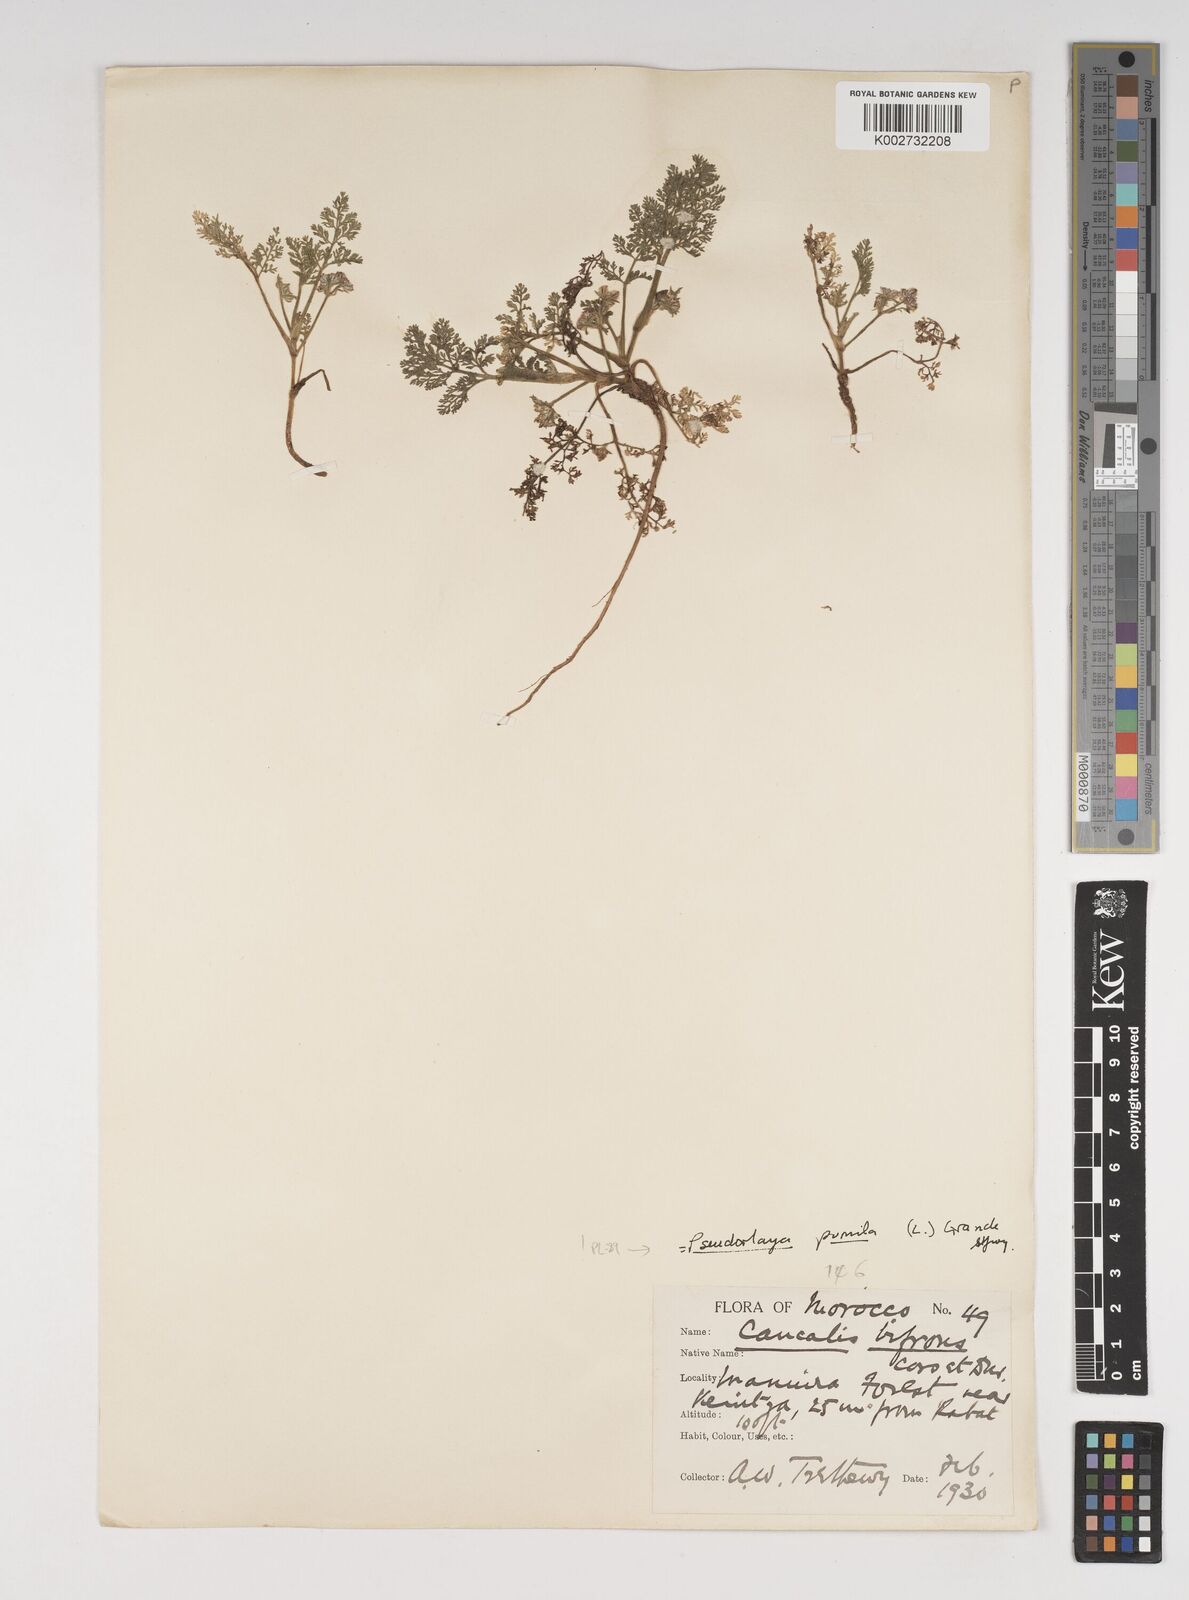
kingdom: Plantae
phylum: Tracheophyta
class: Magnoliopsida
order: Apiales
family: Apiaceae
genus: Daucus
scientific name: Daucus pumilus
